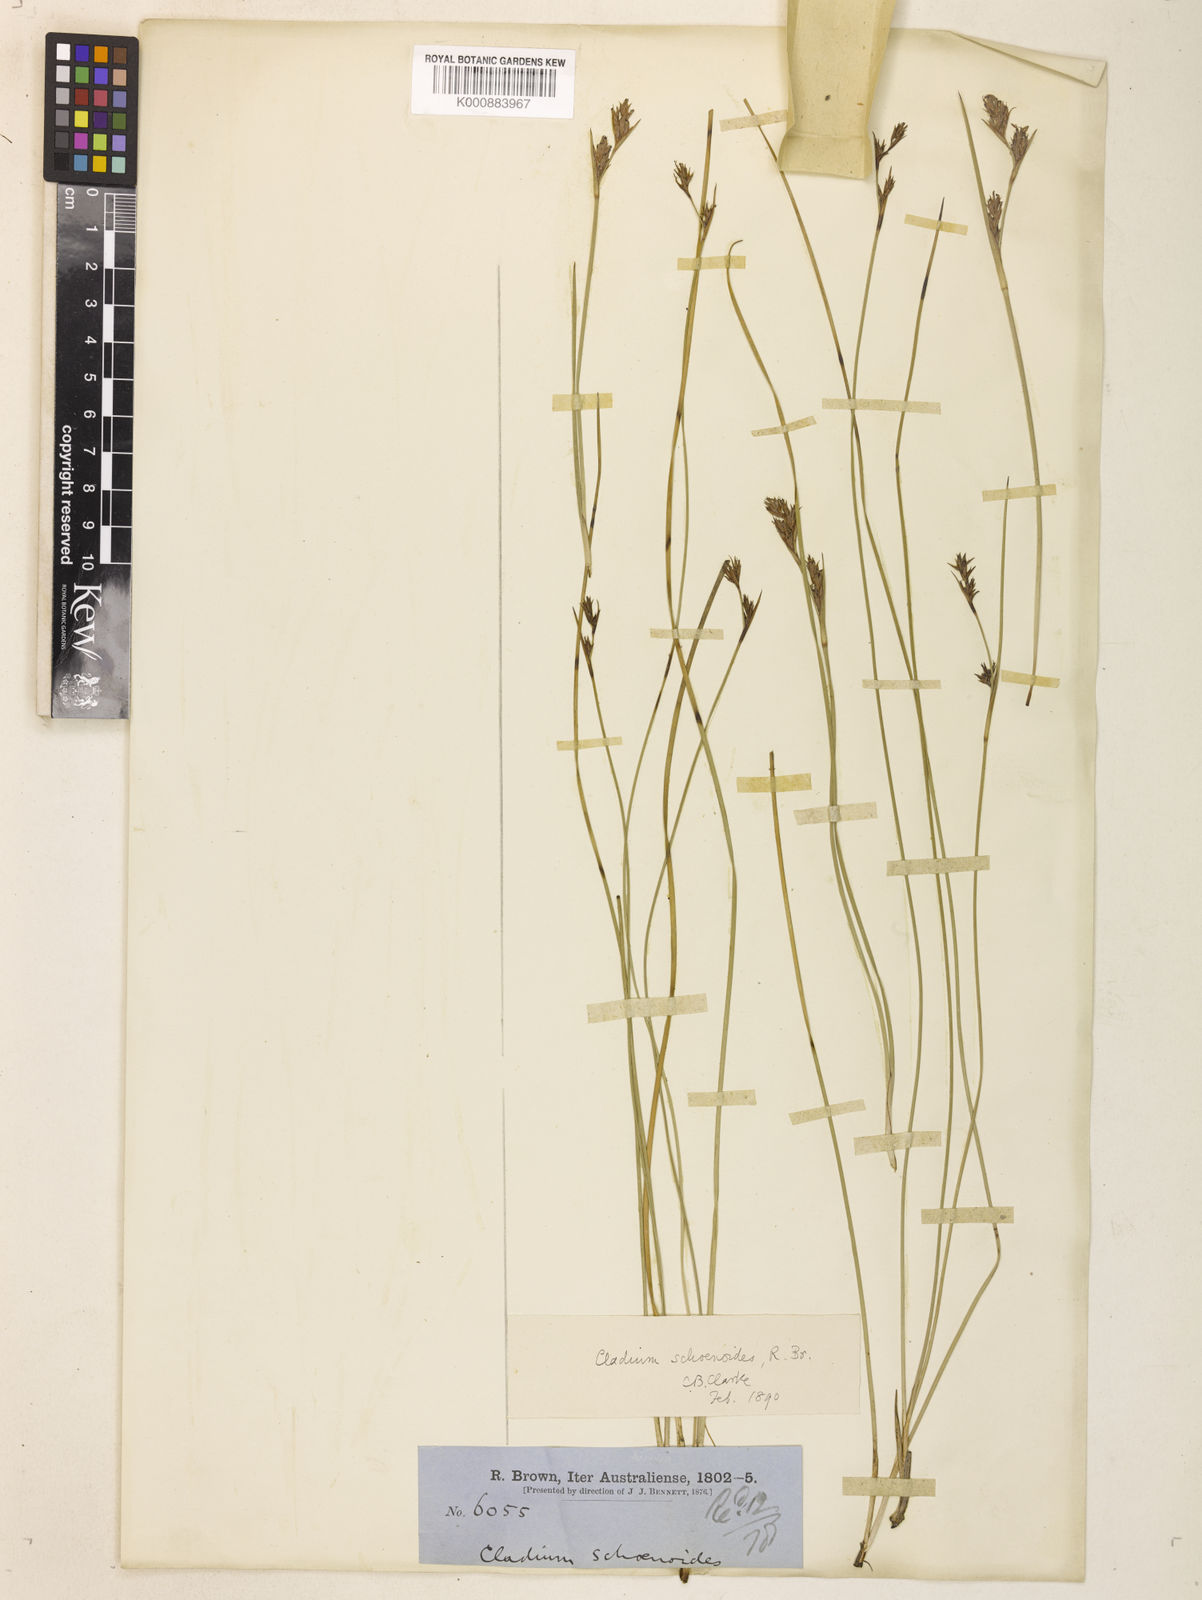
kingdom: Plantae
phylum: Tracheophyta
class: Liliopsida
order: Poales
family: Cyperaceae
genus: Machaerina
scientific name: Machaerina acuta
